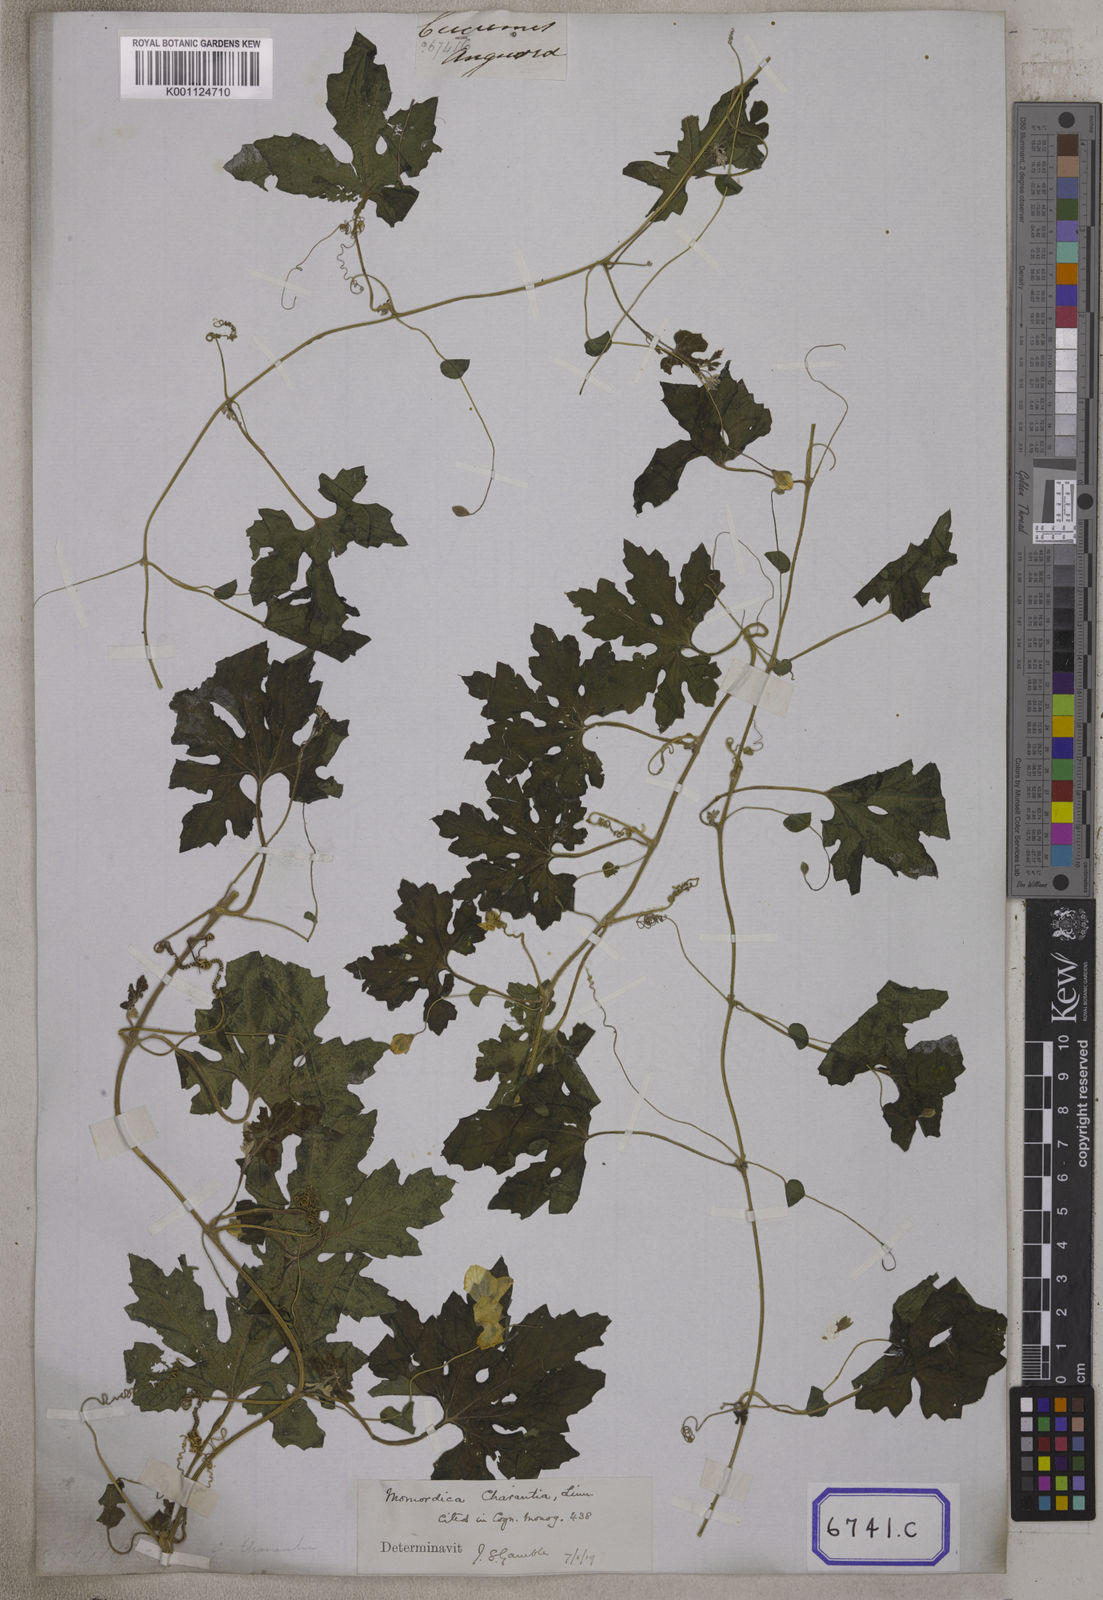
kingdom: Plantae
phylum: Tracheophyta
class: Magnoliopsida
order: Cucurbitales
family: Cucurbitaceae
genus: Momordica
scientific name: Momordica
